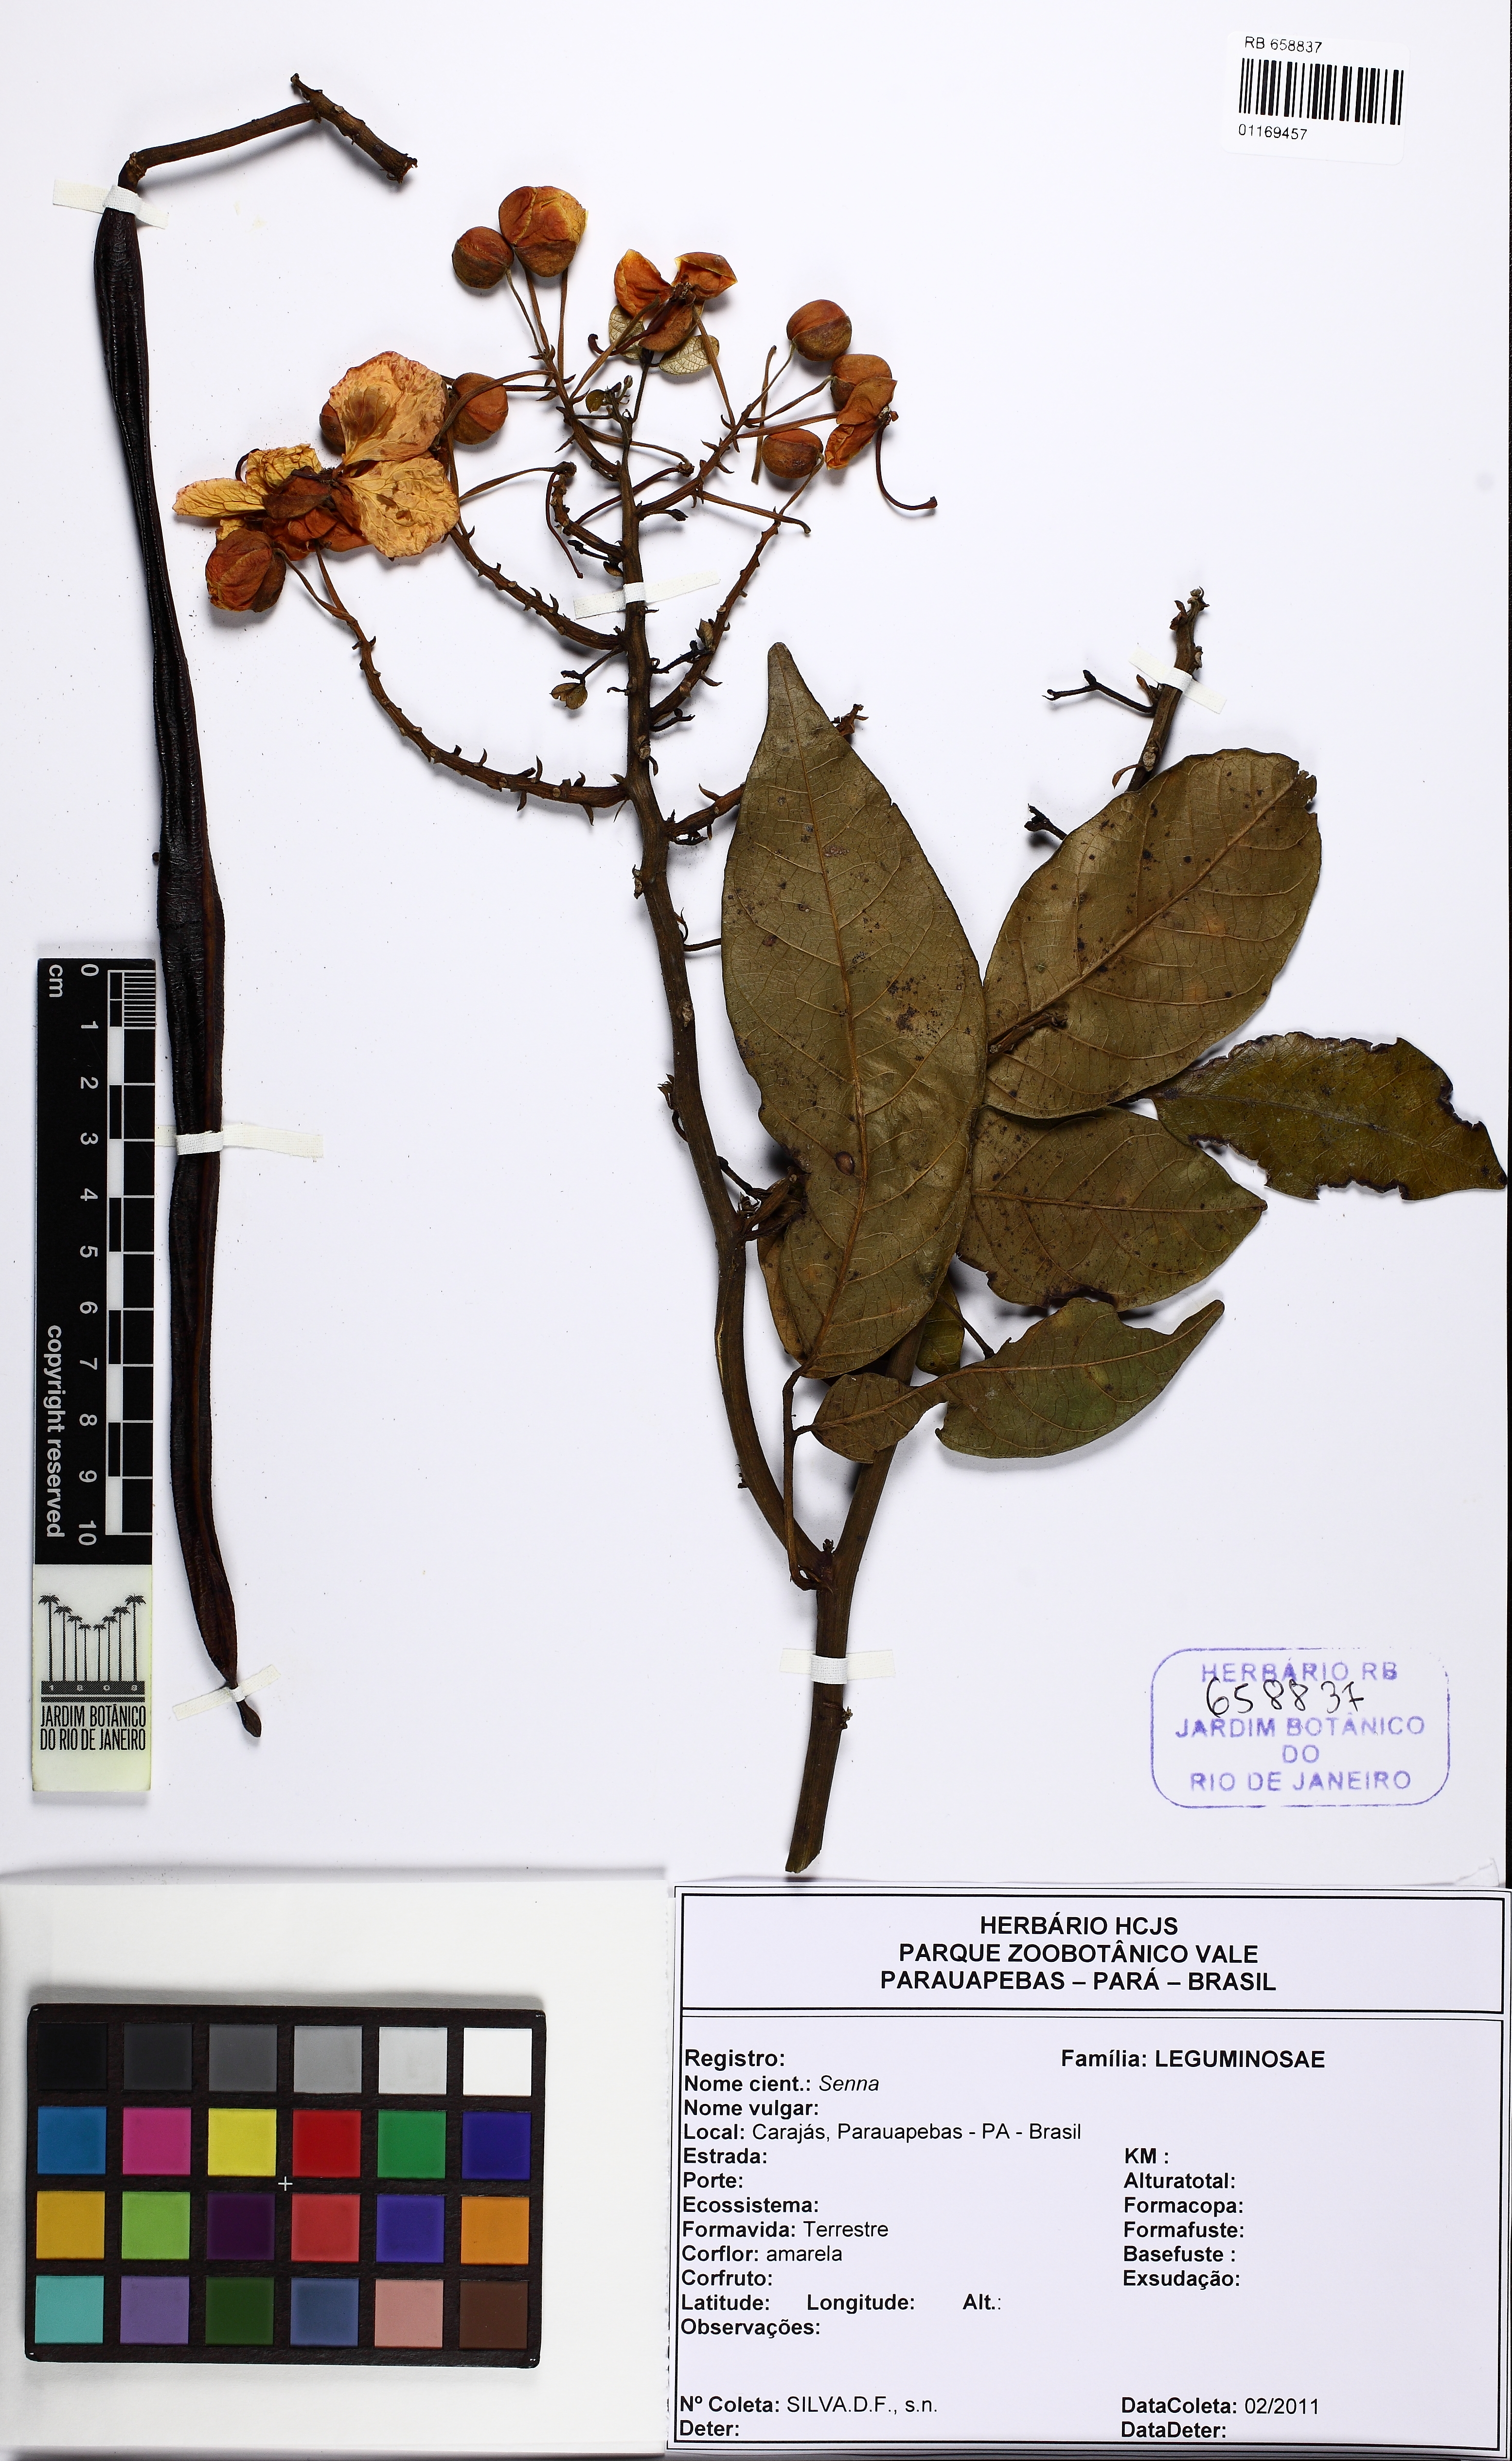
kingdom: Plantae
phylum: Tracheophyta
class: Magnoliopsida
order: Fabales
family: Fabaceae
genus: Senna
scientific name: Senna latifolia
